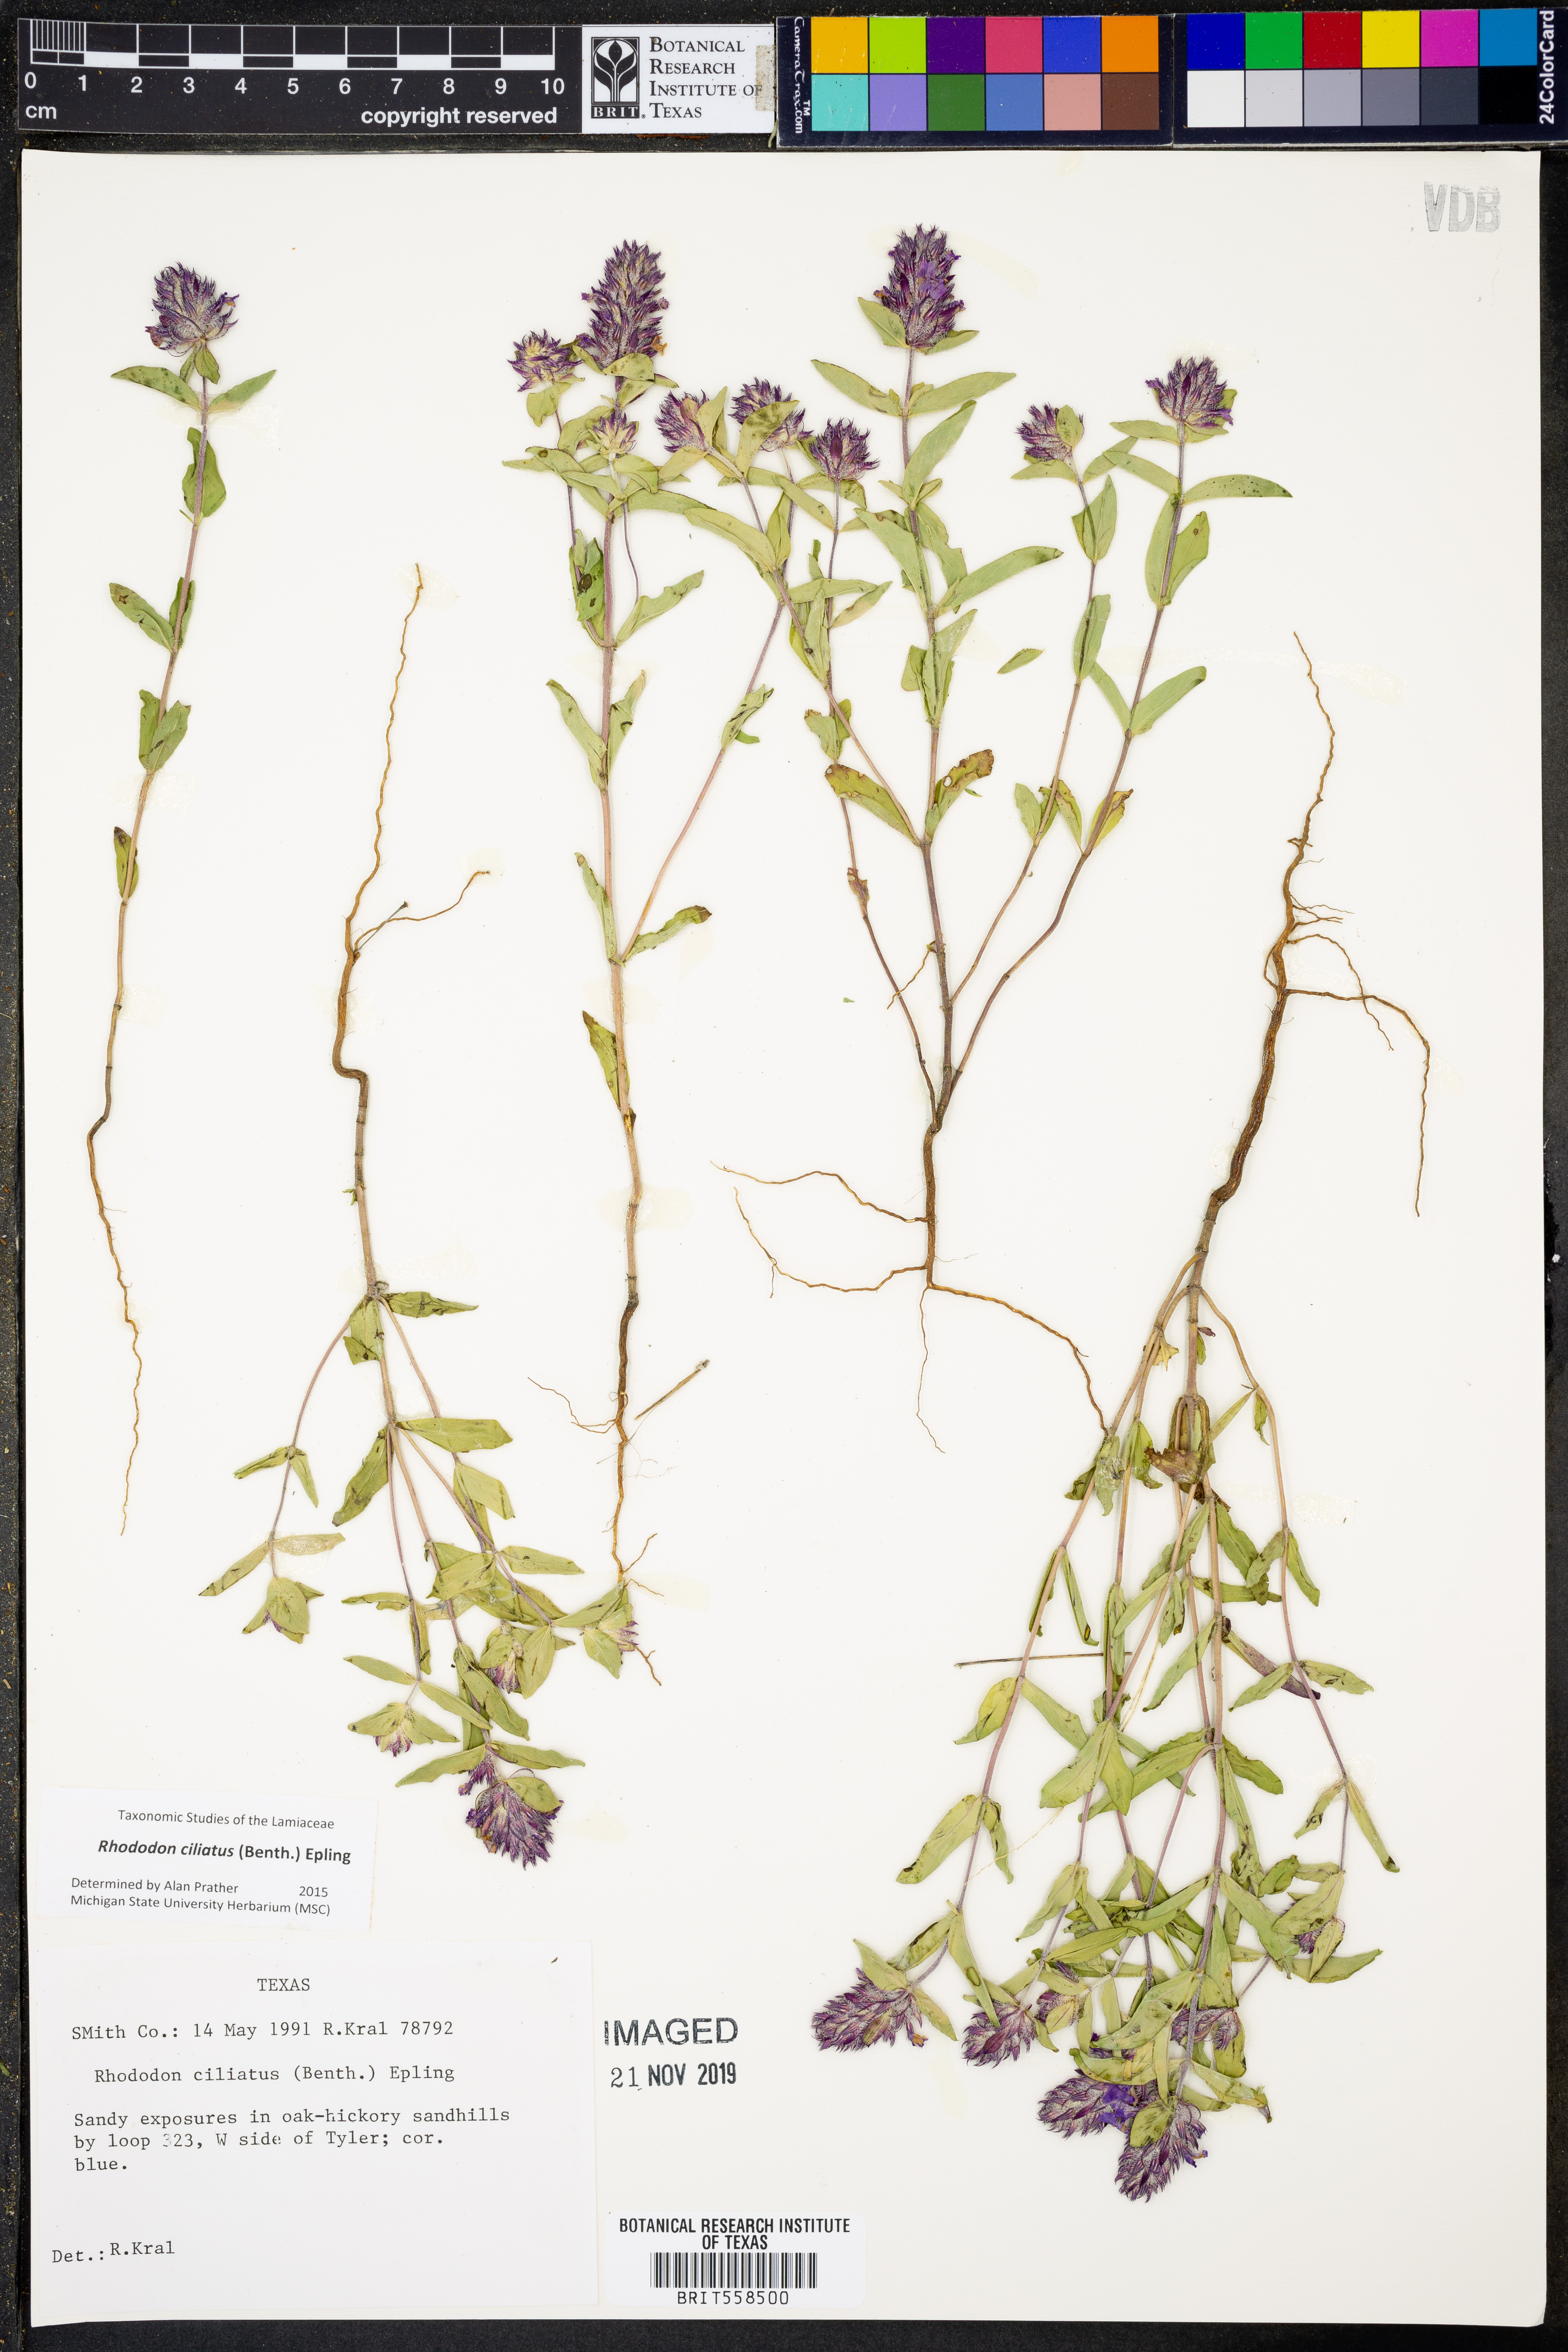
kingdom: Plantae
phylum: Tracheophyta
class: Magnoliopsida
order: Lamiales
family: Lamiaceae
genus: Rhododon
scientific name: Rhododon ciliatus
